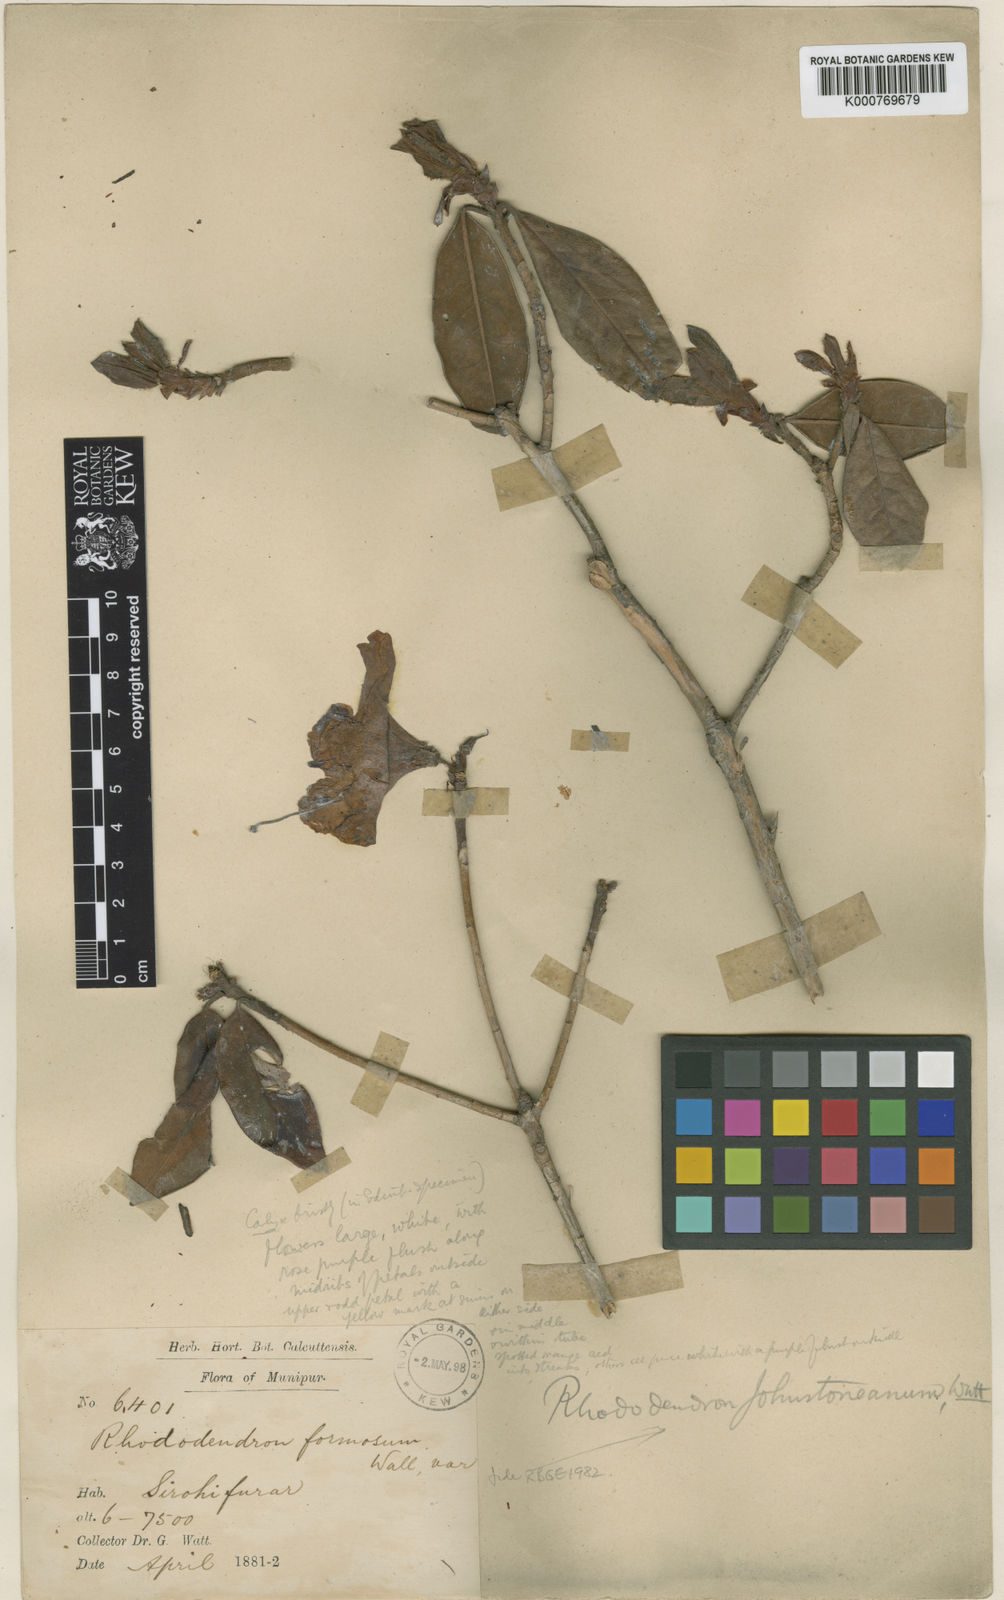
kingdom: Plantae
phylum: Tracheophyta
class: Magnoliopsida
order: Ericales
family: Ericaceae
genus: Rhododendron
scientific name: Rhododendron johnstoneanum
